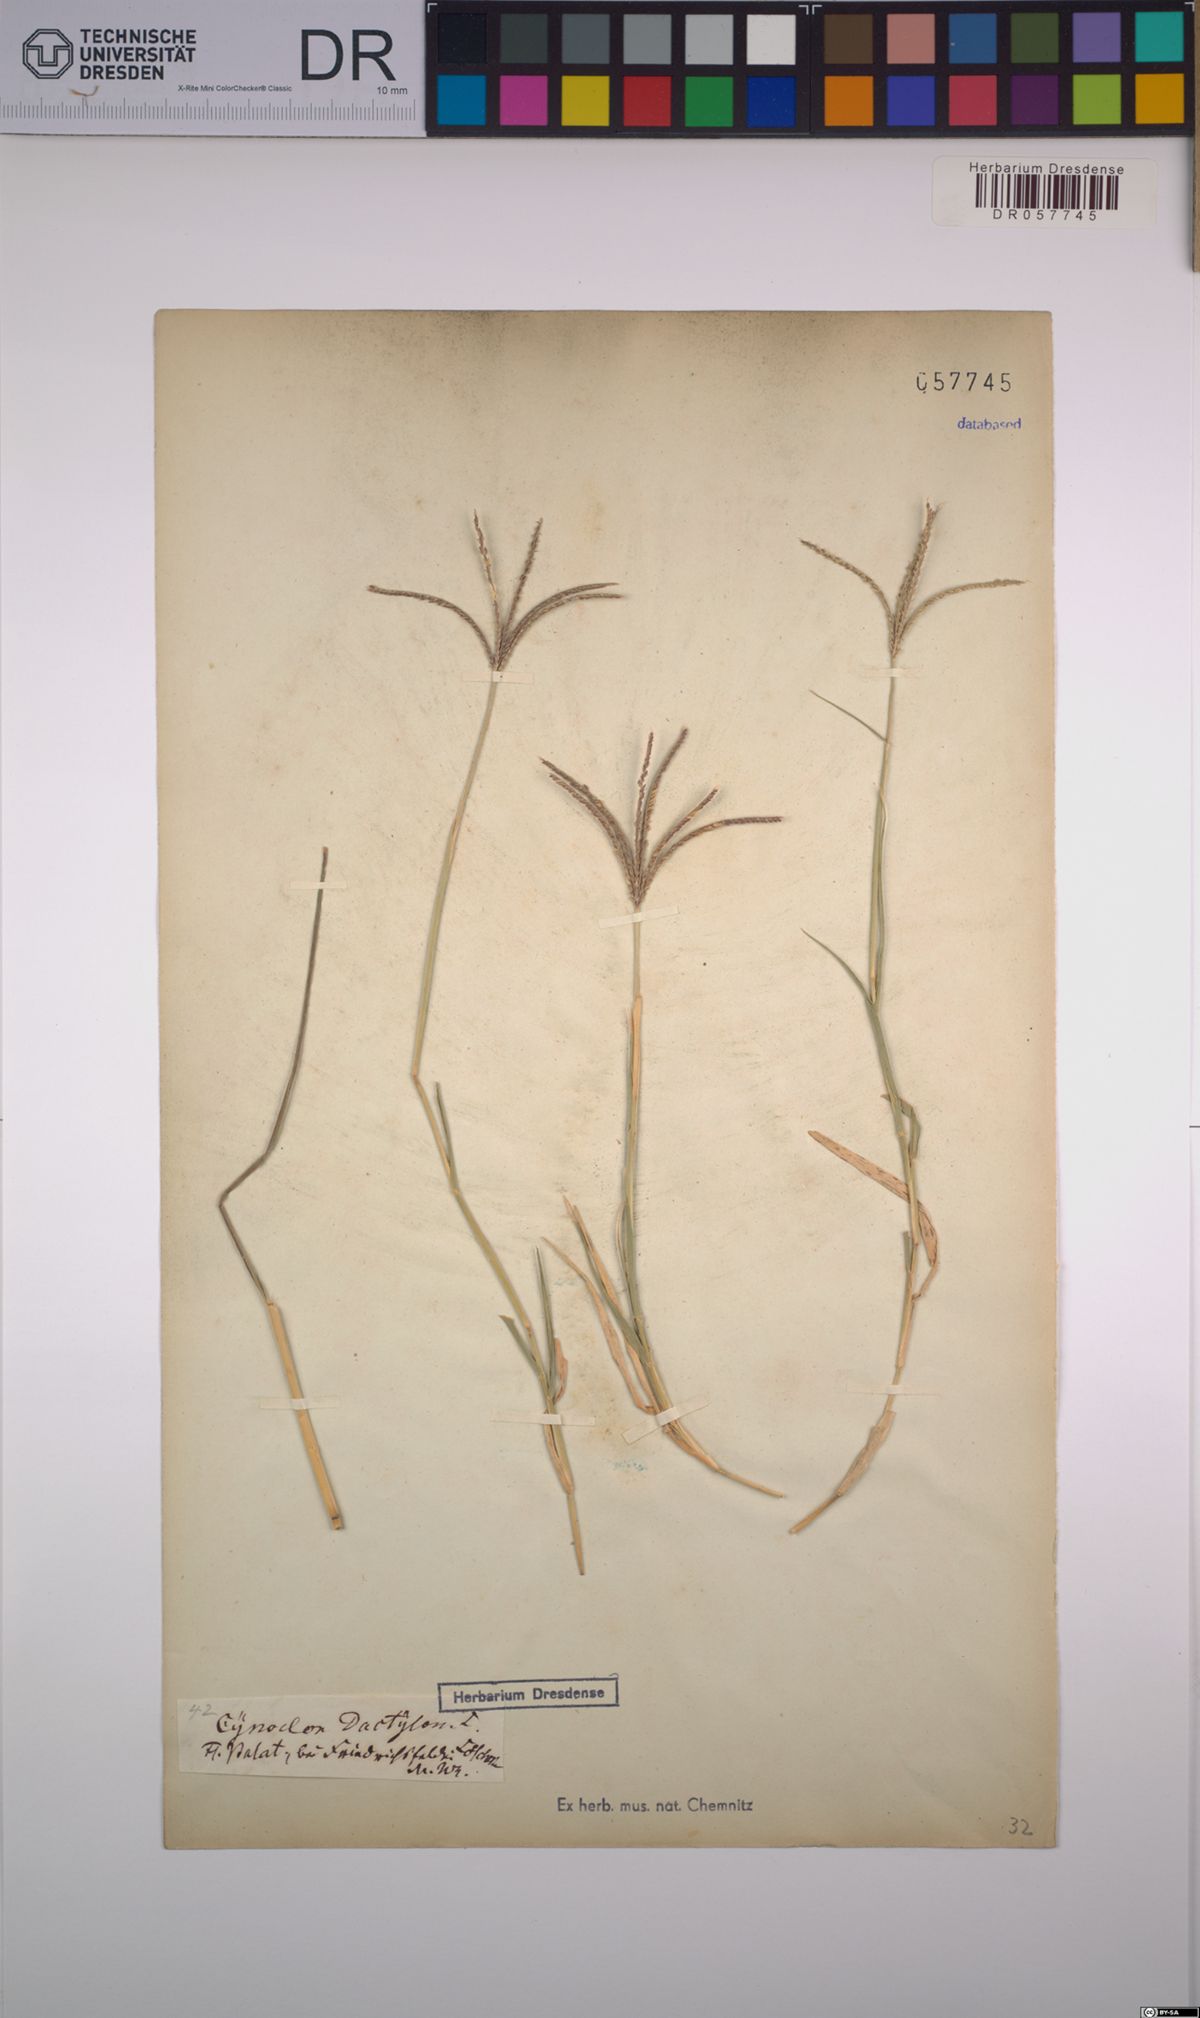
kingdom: Plantae
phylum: Tracheophyta
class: Liliopsida
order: Poales
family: Poaceae
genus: Cynodon
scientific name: Cynodon dactylon
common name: Bermuda grass
